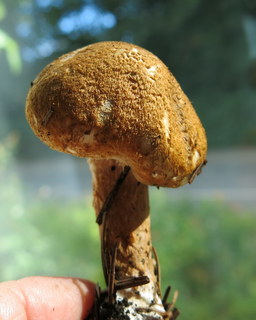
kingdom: Fungi
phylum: Basidiomycota
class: Agaricomycetes
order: Agaricales
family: Agaricaceae
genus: Leucocoprinus
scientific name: Leucocoprinus straminellus
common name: rustbrun parasolhat
